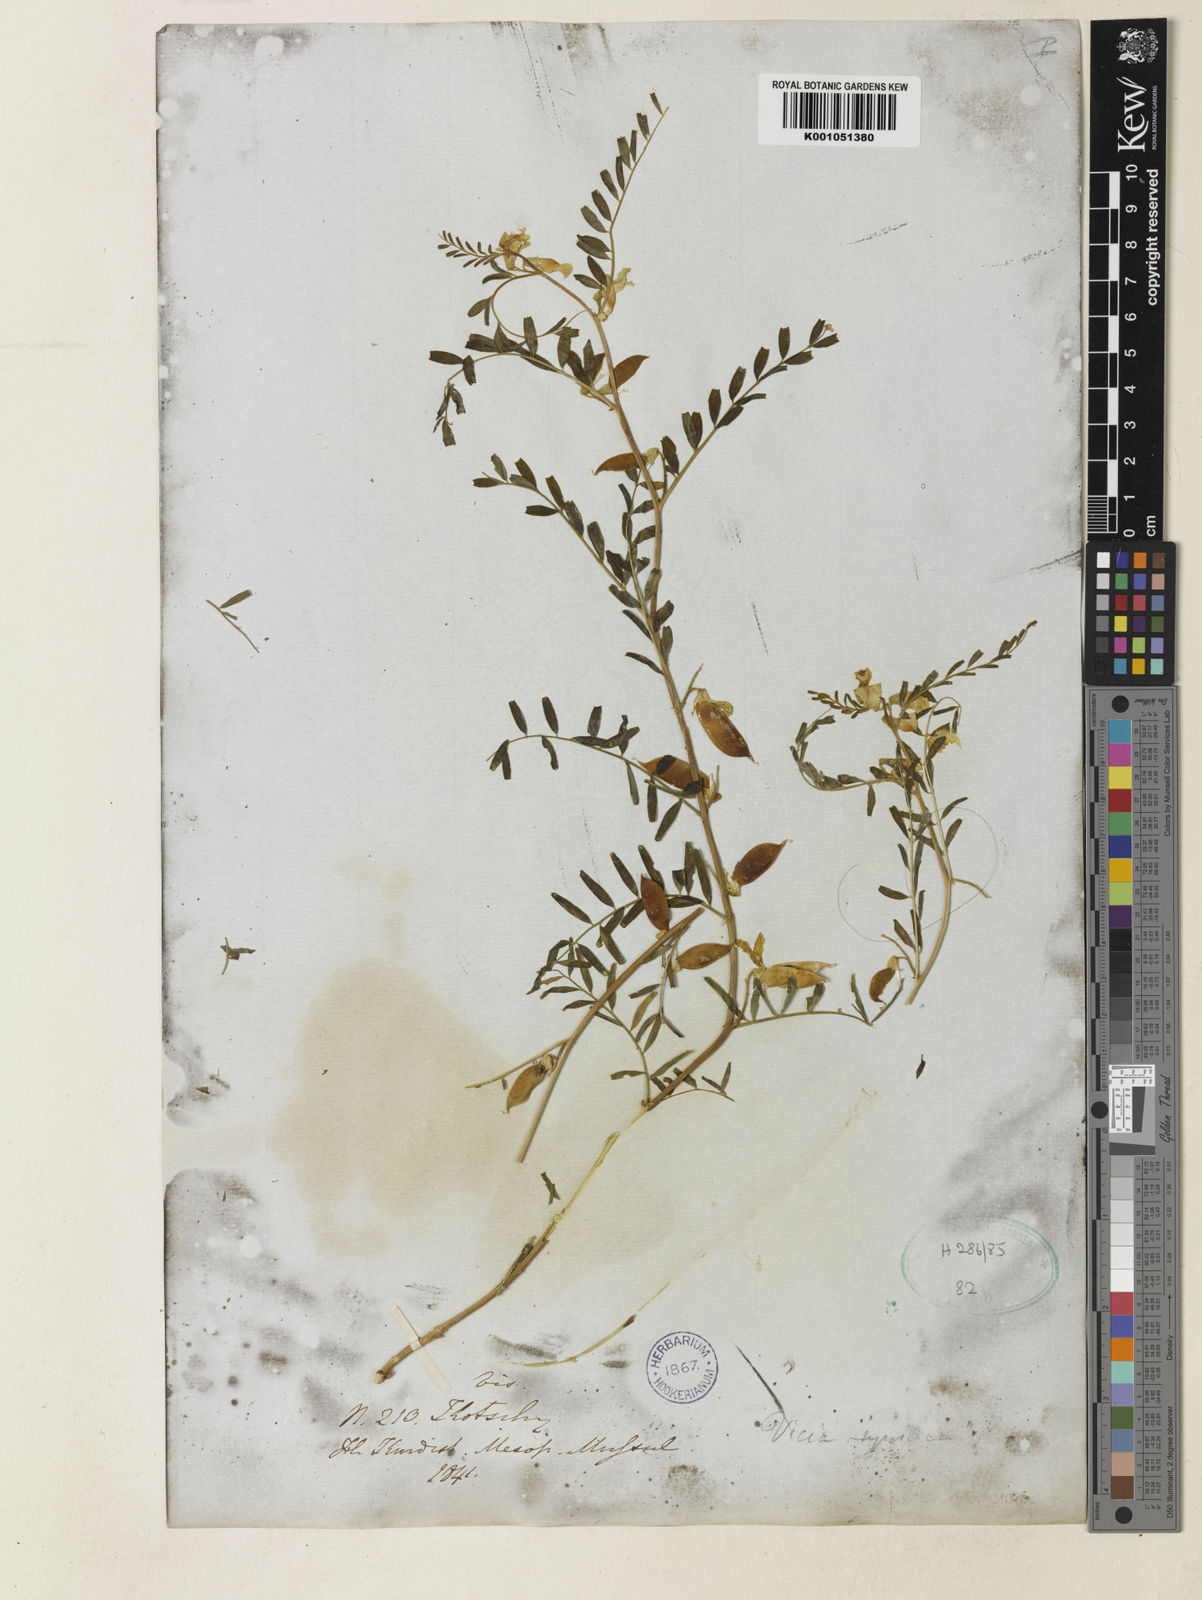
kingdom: Plantae
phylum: Tracheophyta
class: Magnoliopsida
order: Fabales
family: Fabaceae
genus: Vicia
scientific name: Vicia assyriaca
